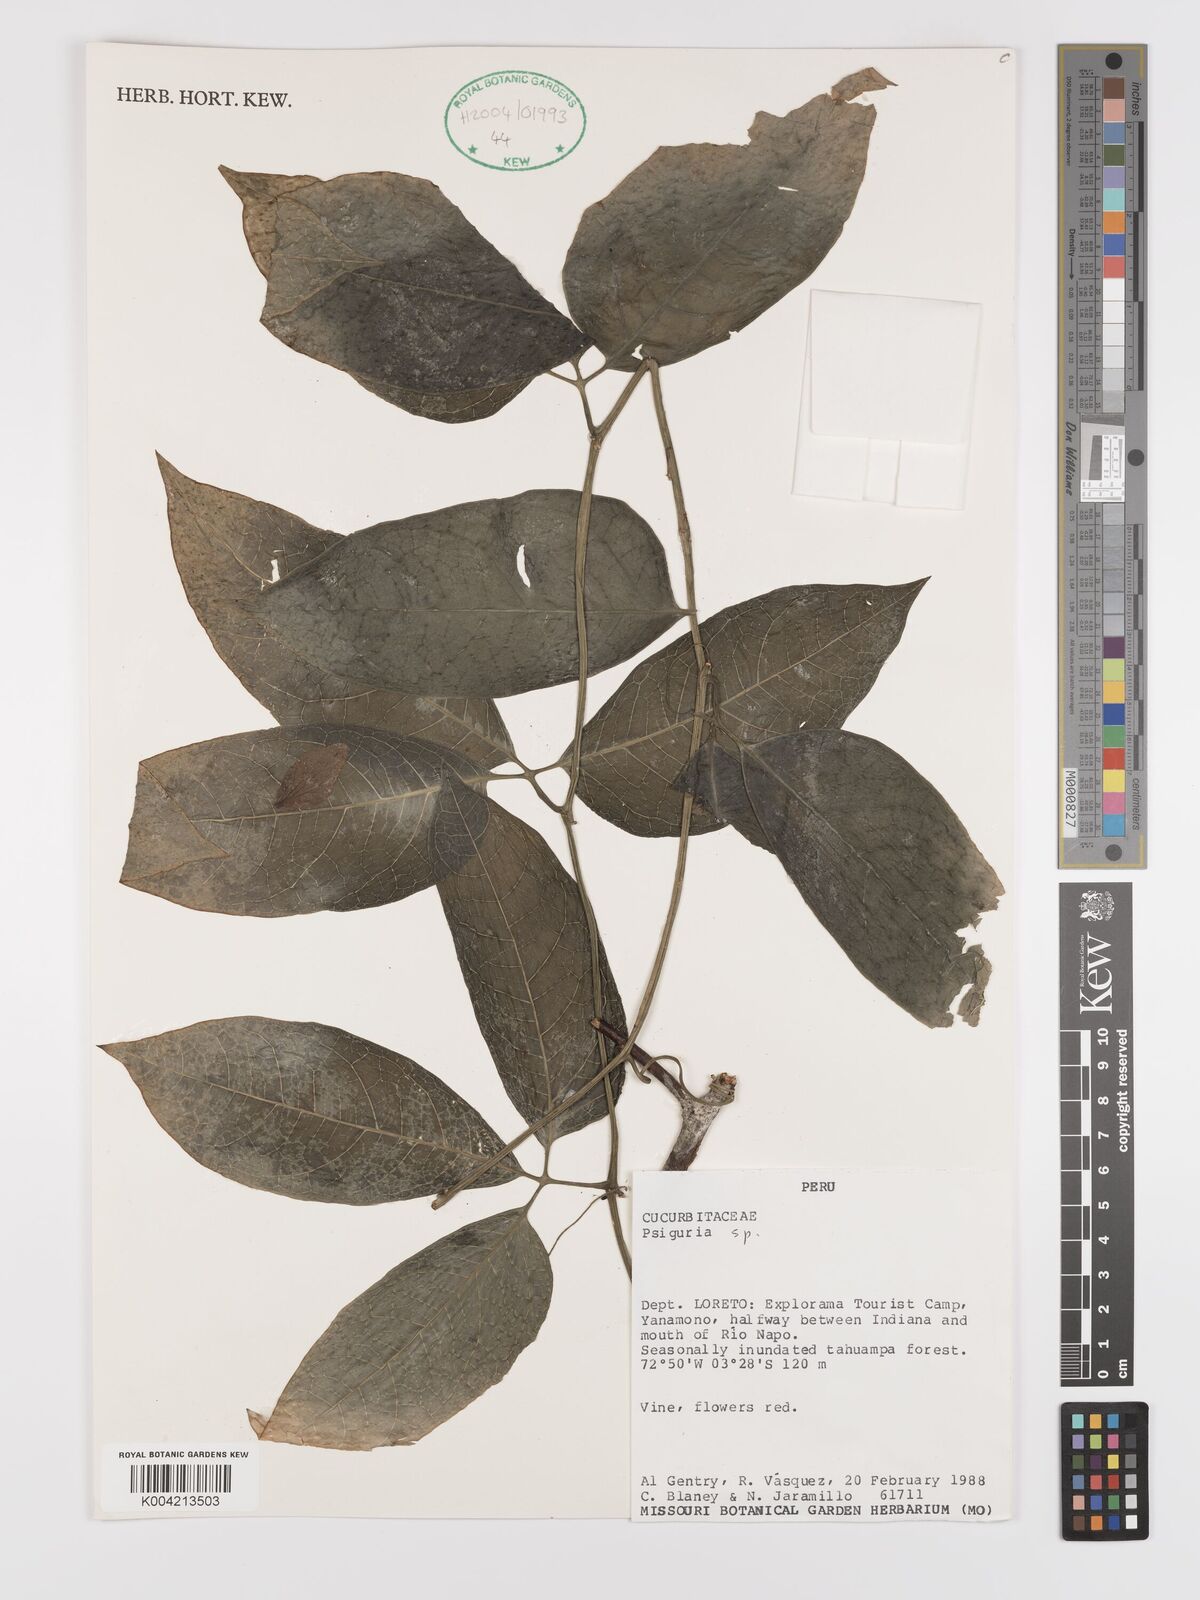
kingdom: Plantae
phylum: Tracheophyta
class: Magnoliopsida
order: Cucurbitales
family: Cucurbitaceae
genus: Psiguria
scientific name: Psiguria
